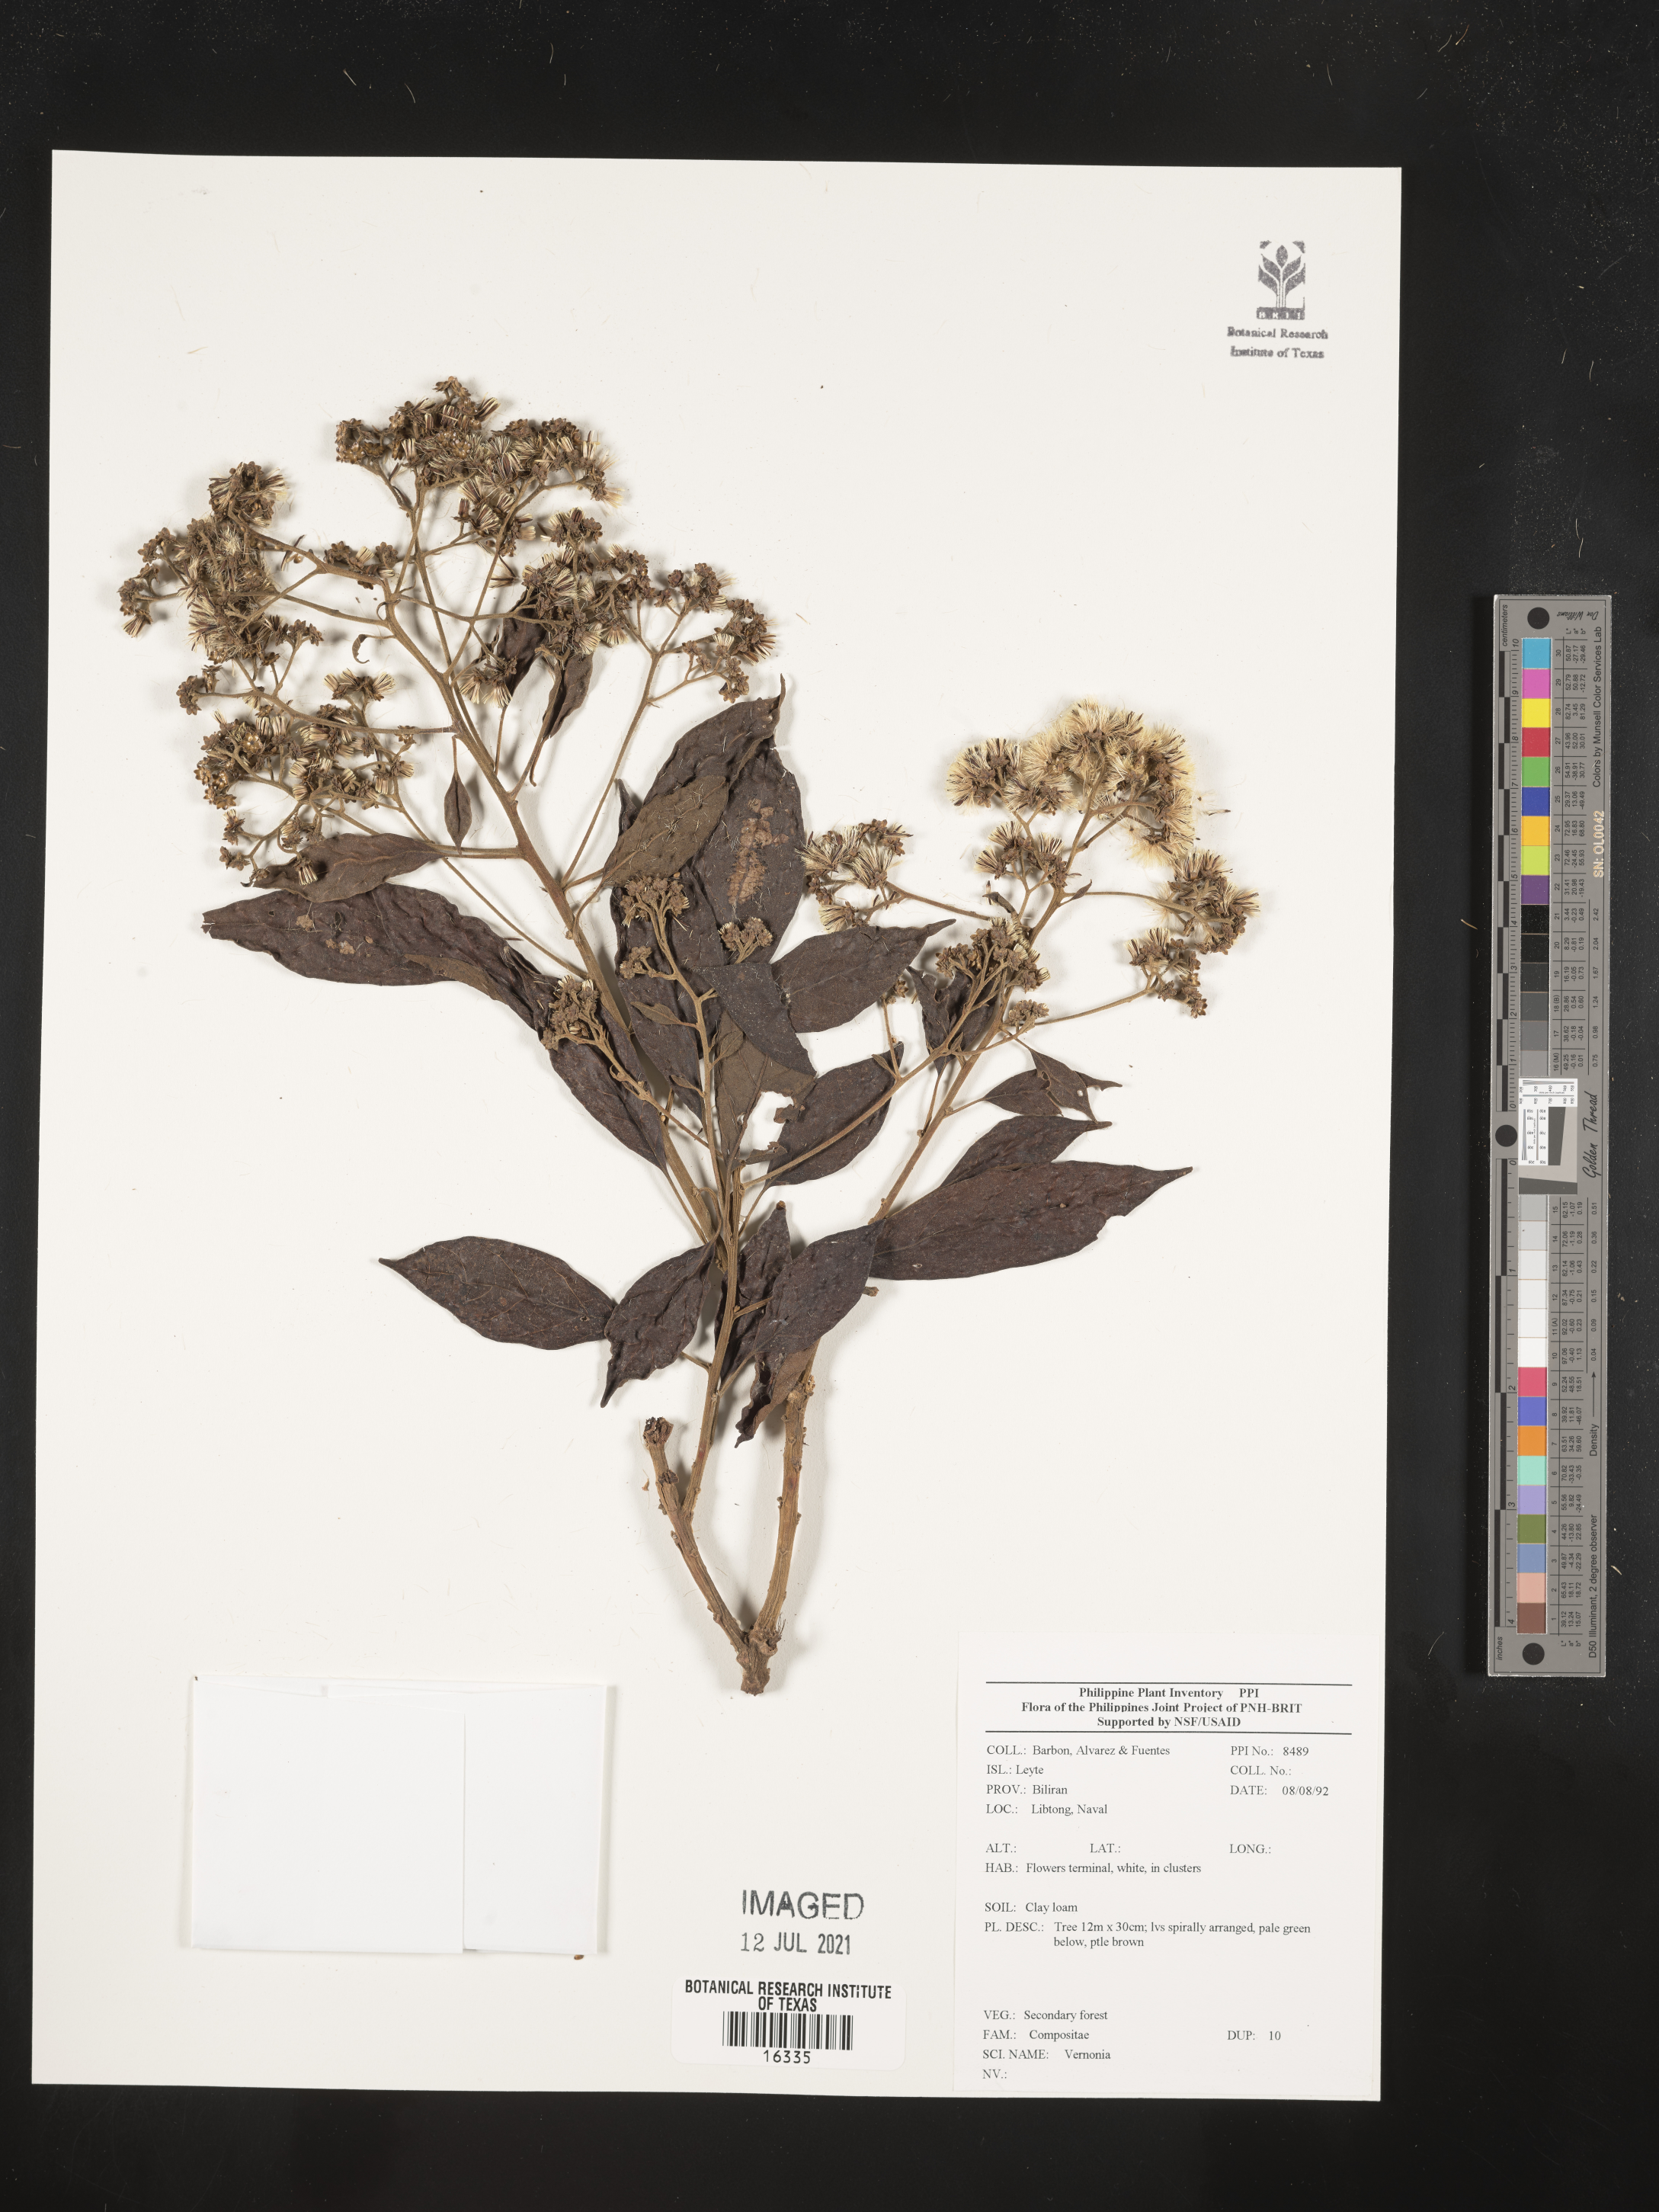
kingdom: Plantae
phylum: Tracheophyta
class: Magnoliopsida
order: Asterales
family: Asteraceae
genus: Vernonia
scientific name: Vernonia
